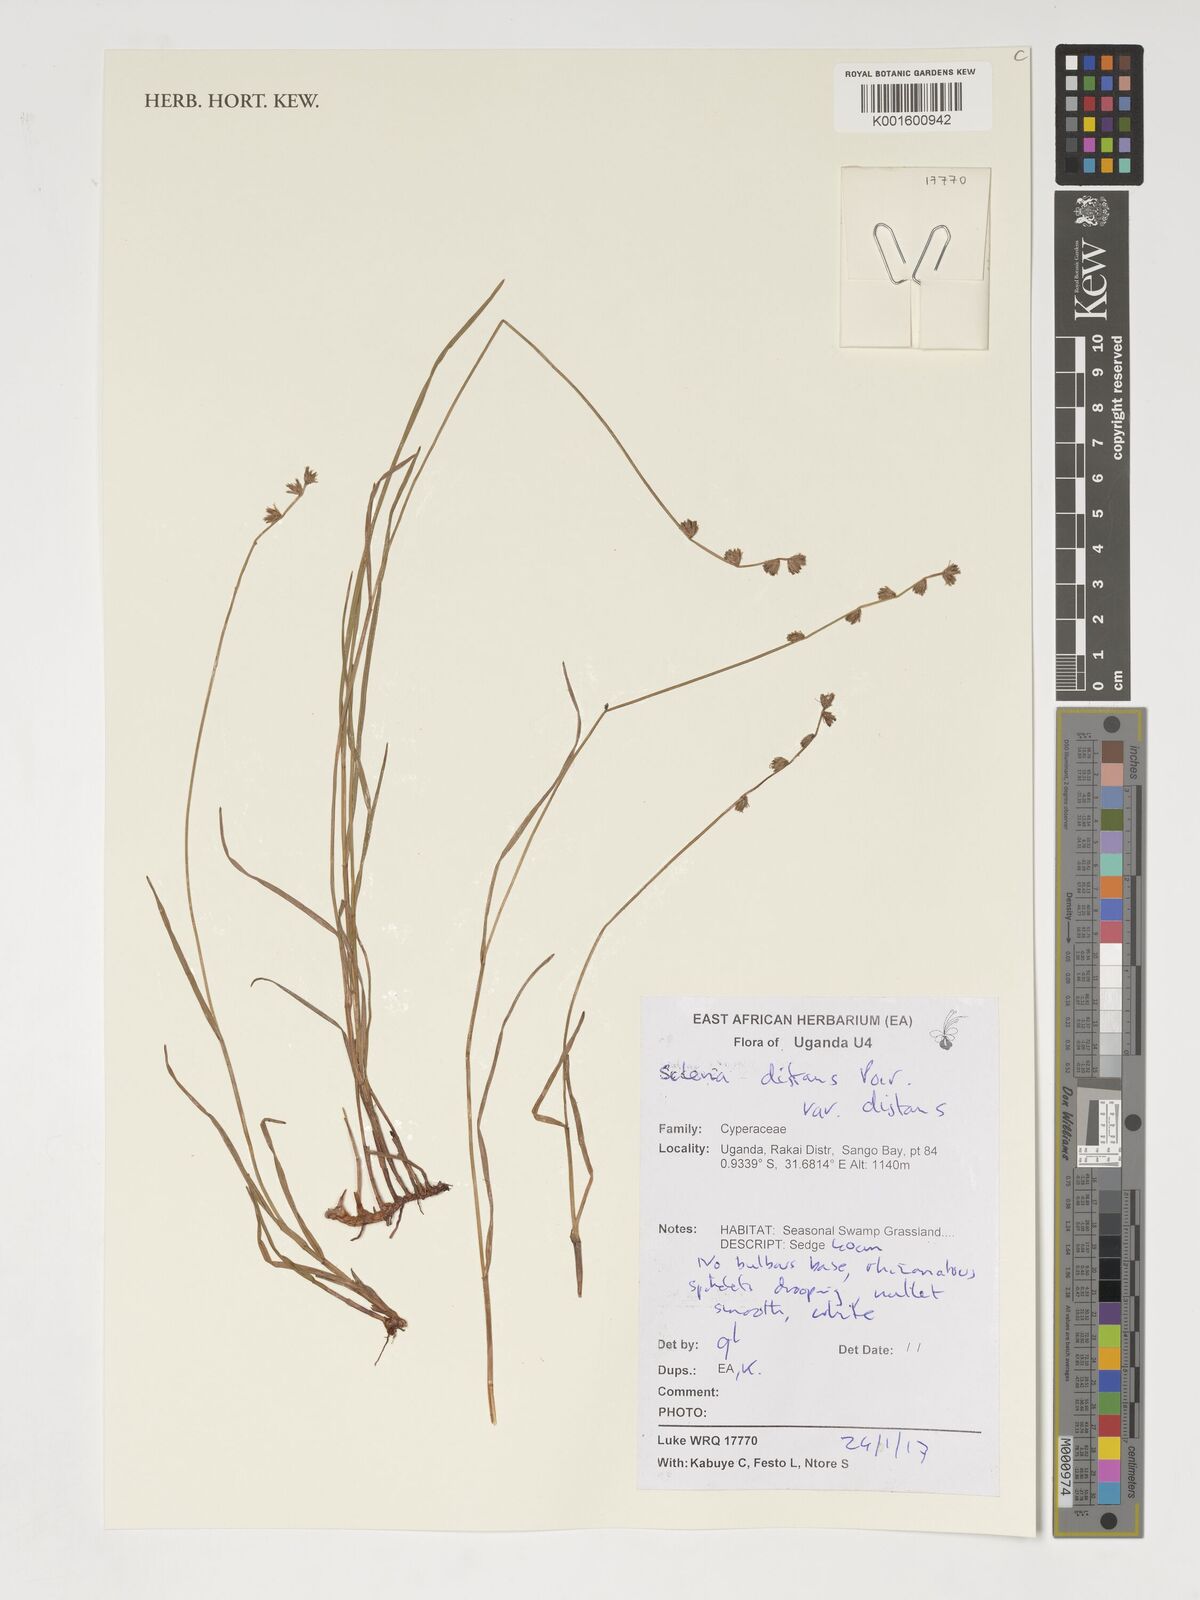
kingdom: Plantae
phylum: Tracheophyta
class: Liliopsida
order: Poales
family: Cyperaceae
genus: Scleria
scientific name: Scleria distans
